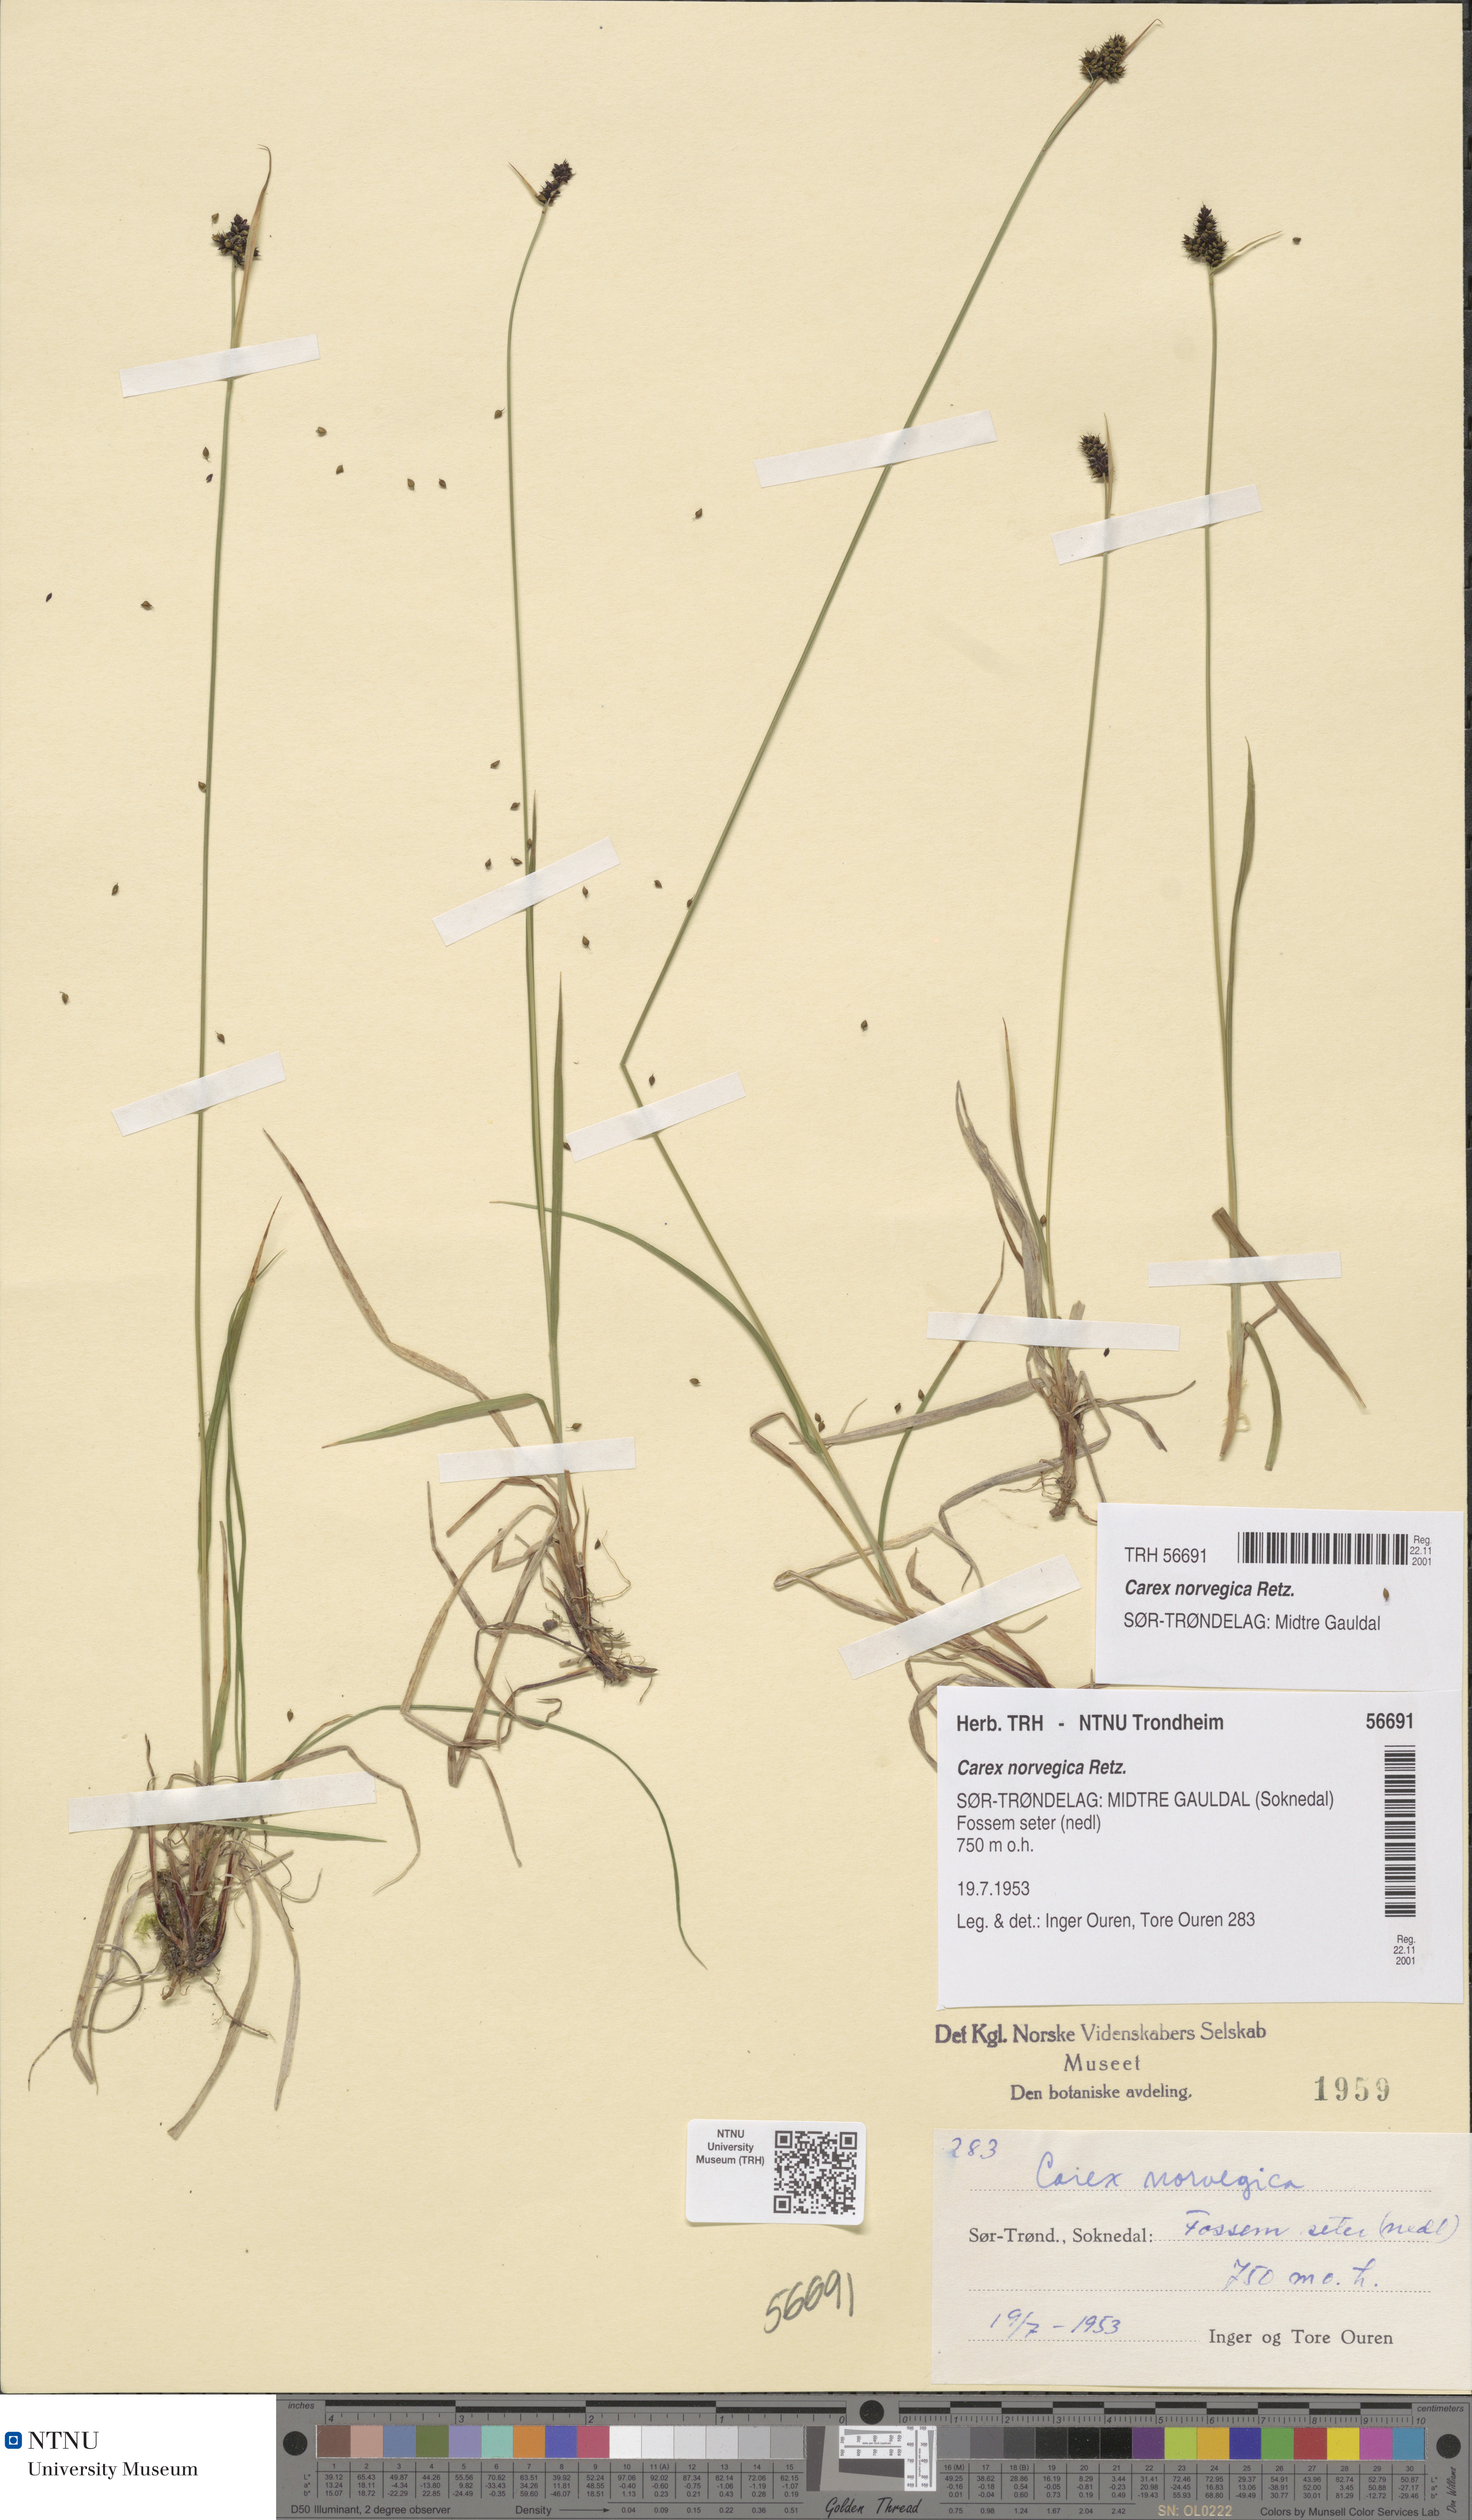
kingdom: Plantae
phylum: Tracheophyta
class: Liliopsida
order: Poales
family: Cyperaceae
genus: Carex
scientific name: Carex norvegica
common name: Close-headed alpine-sedge
